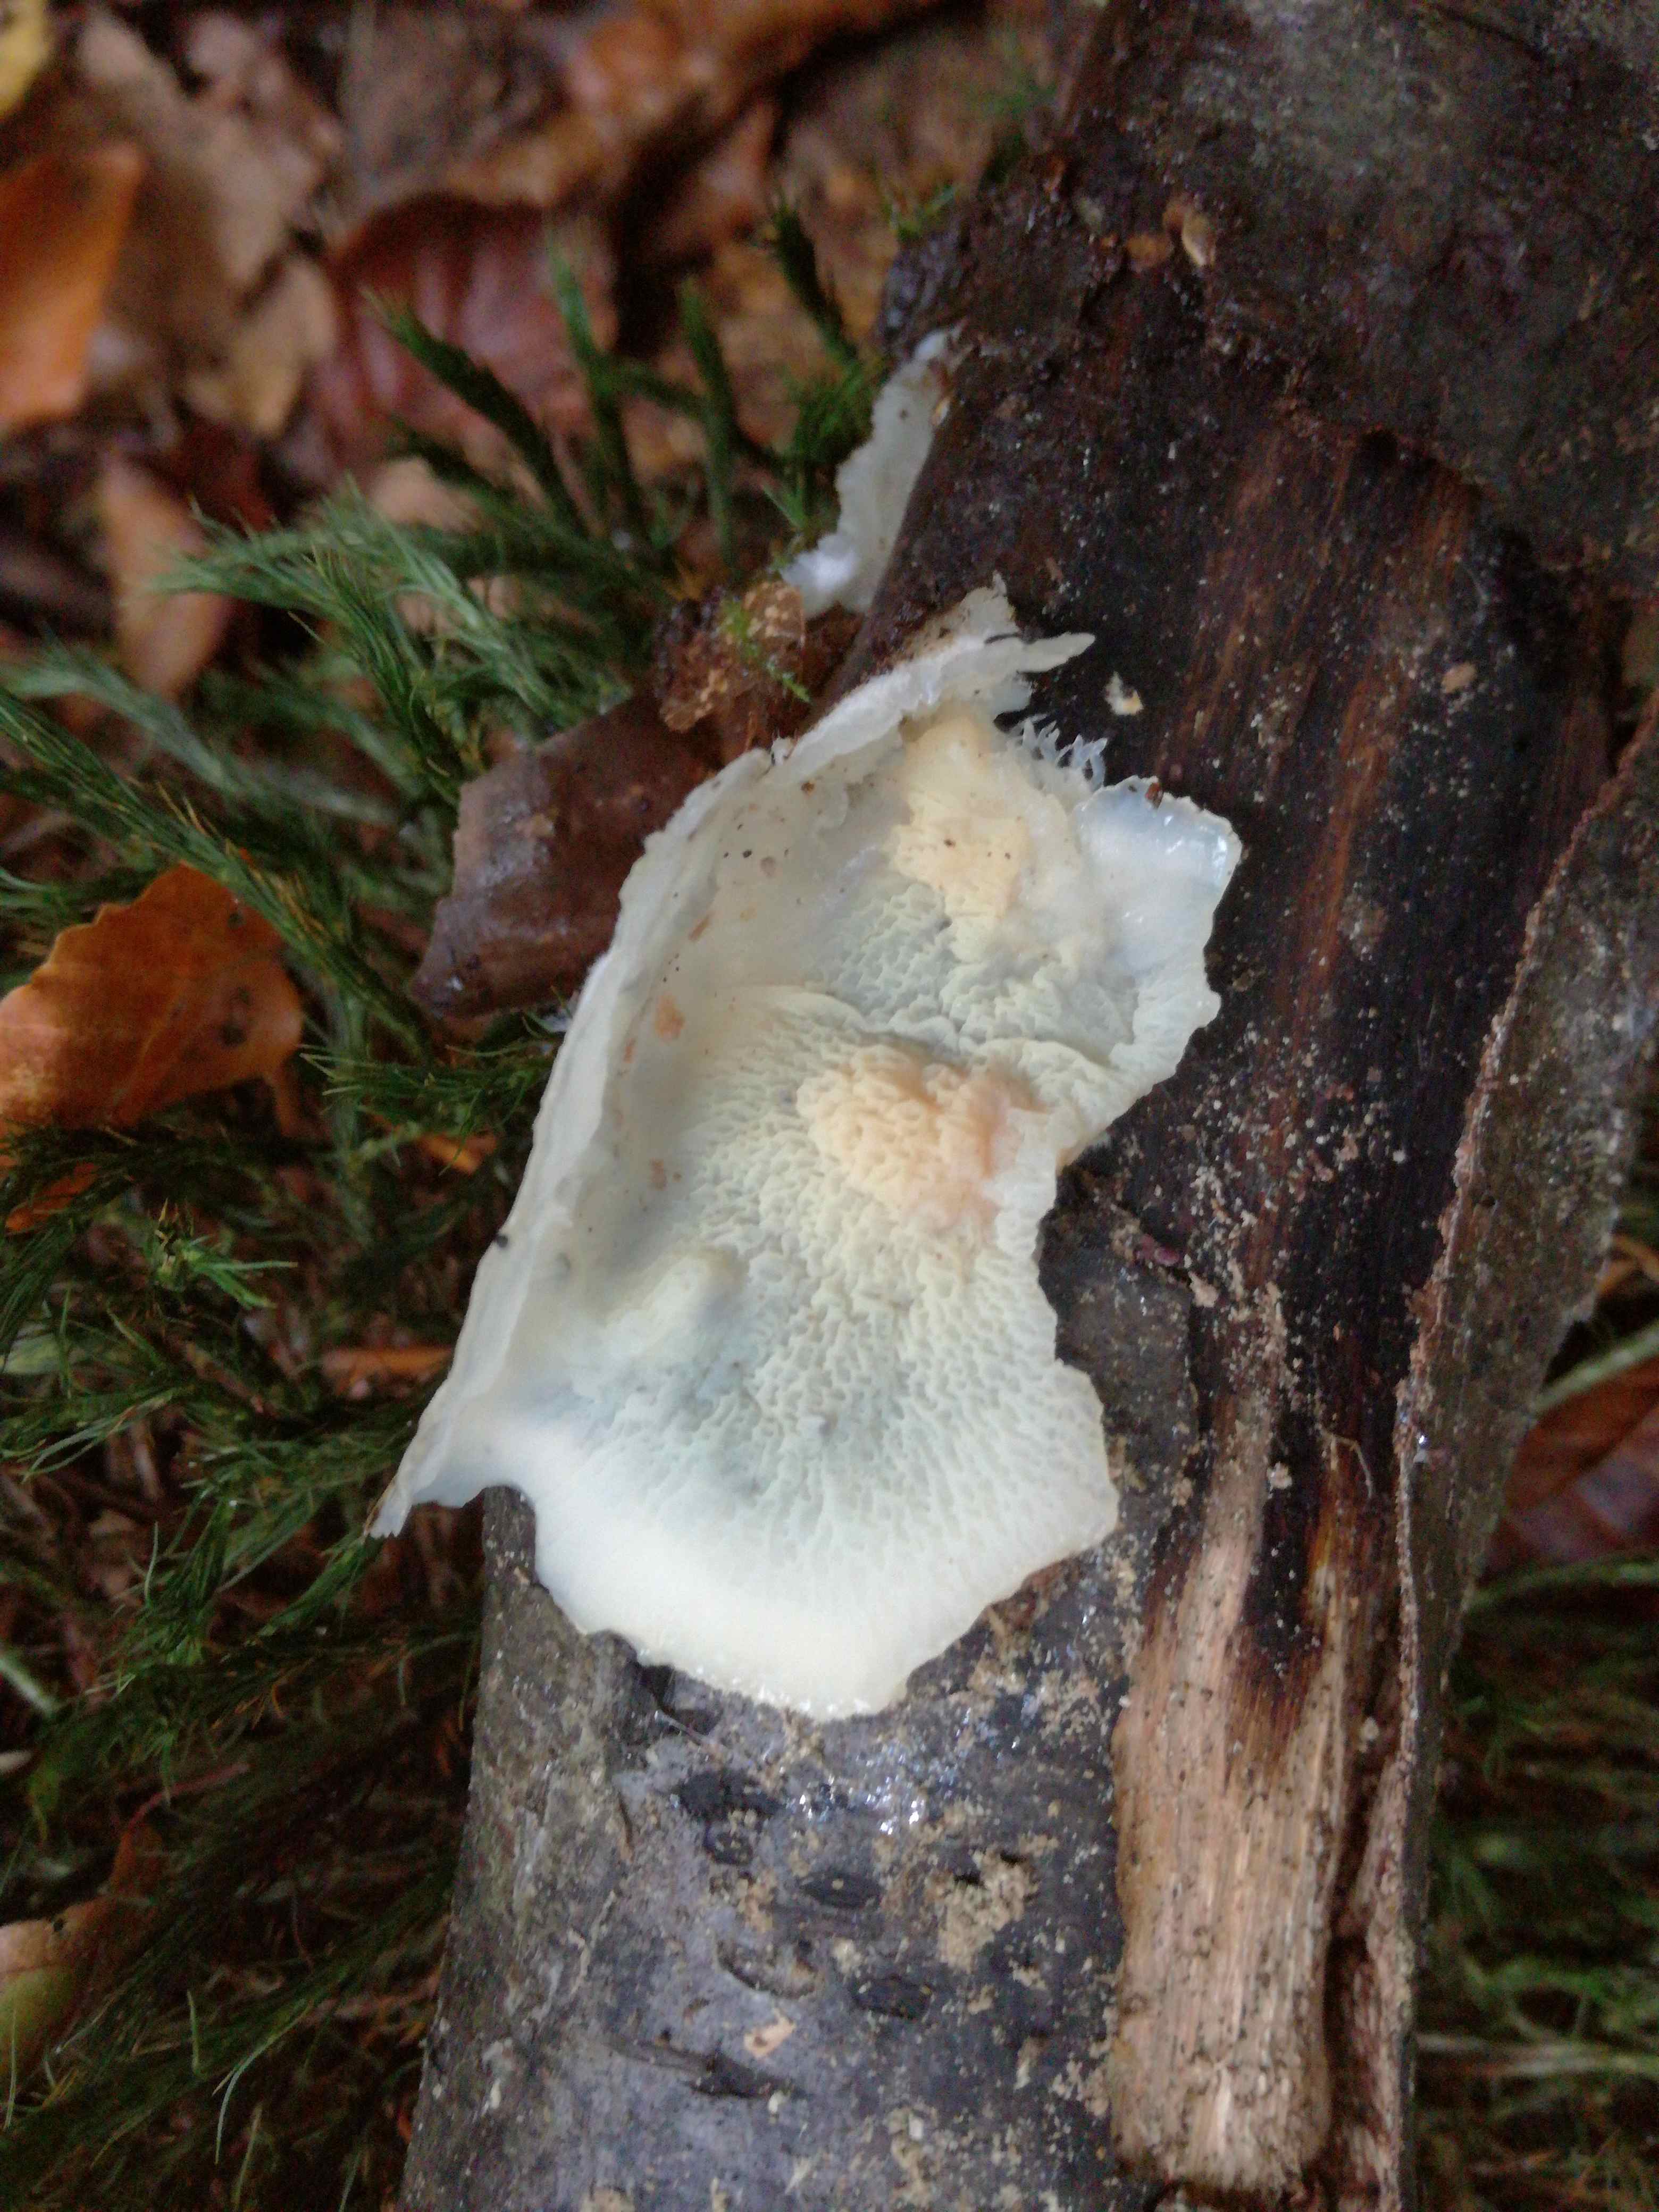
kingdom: Fungi
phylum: Basidiomycota
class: Agaricomycetes
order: Polyporales
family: Meruliaceae
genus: Phlebia
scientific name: Phlebia tremellosa
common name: bævrende åresvamp
